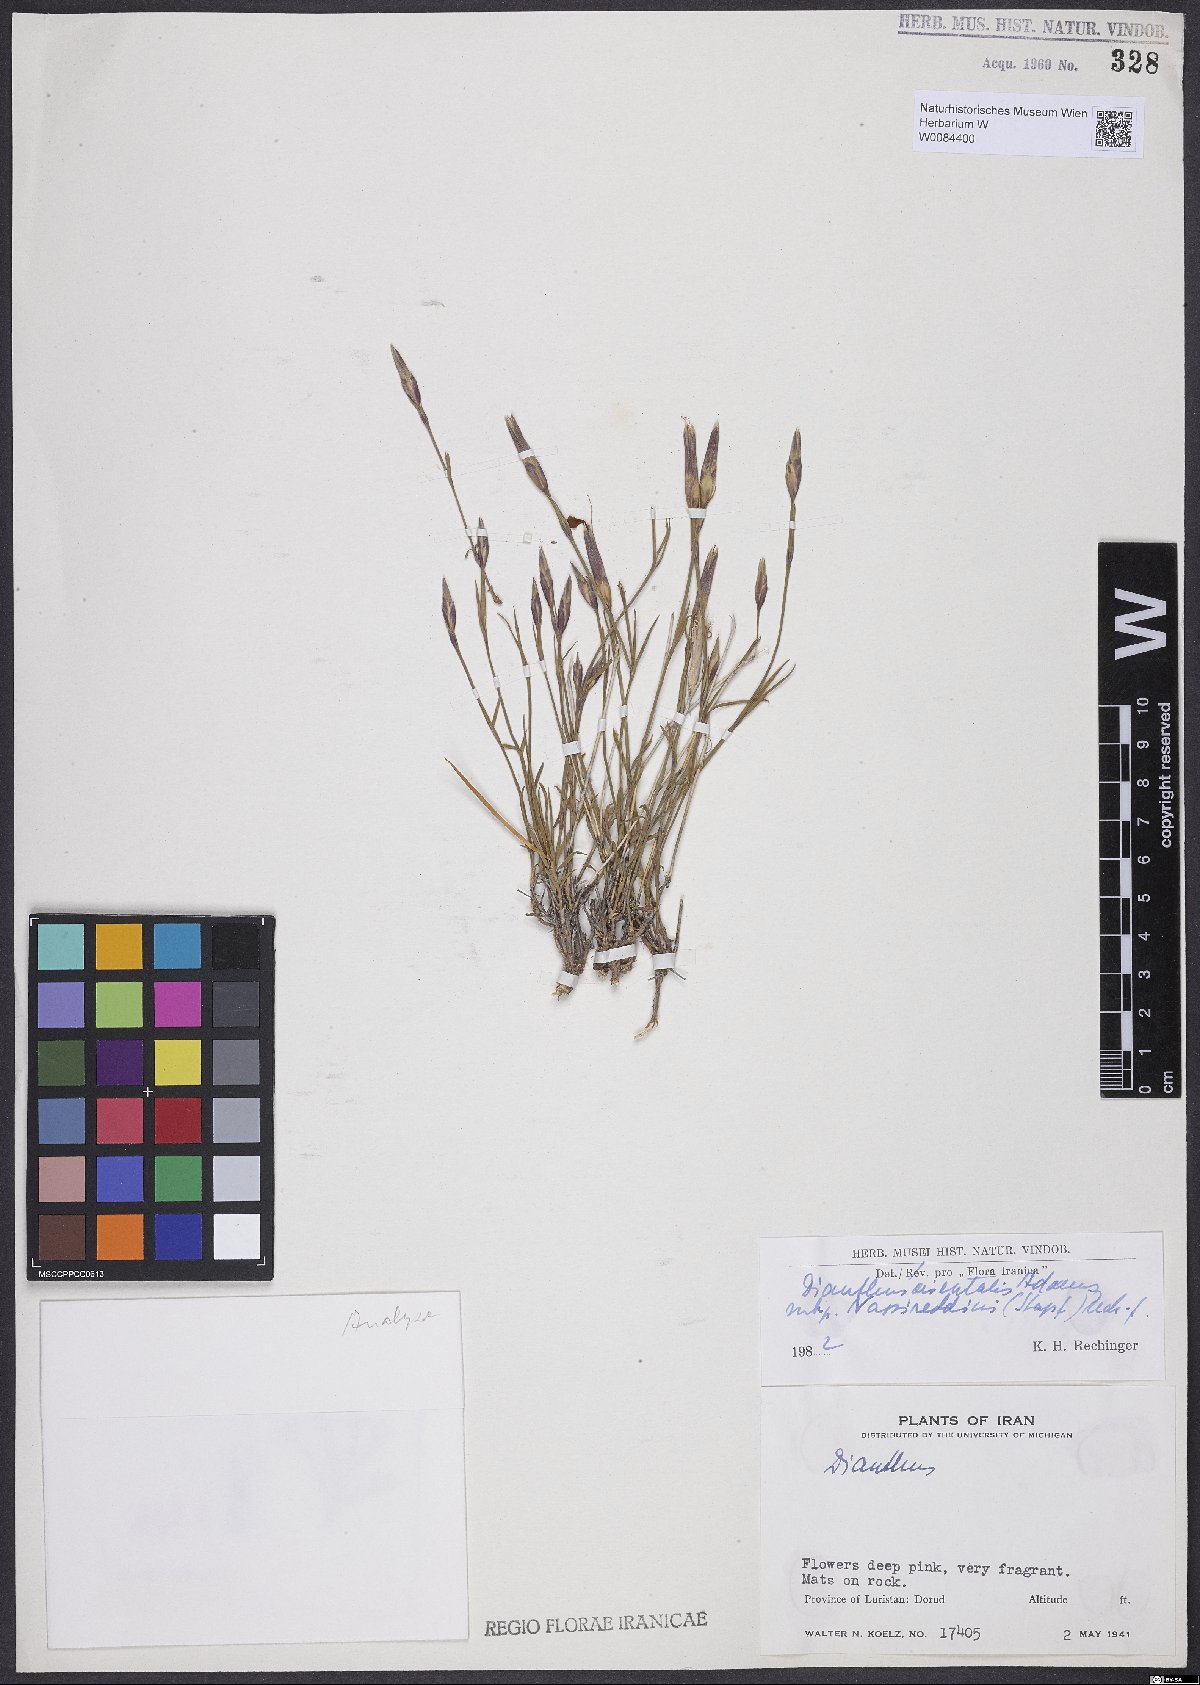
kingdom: Plantae
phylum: Tracheophyta
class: Magnoliopsida
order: Caryophyllales
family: Caryophyllaceae
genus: Dianthus
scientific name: Dianthus orientalis
